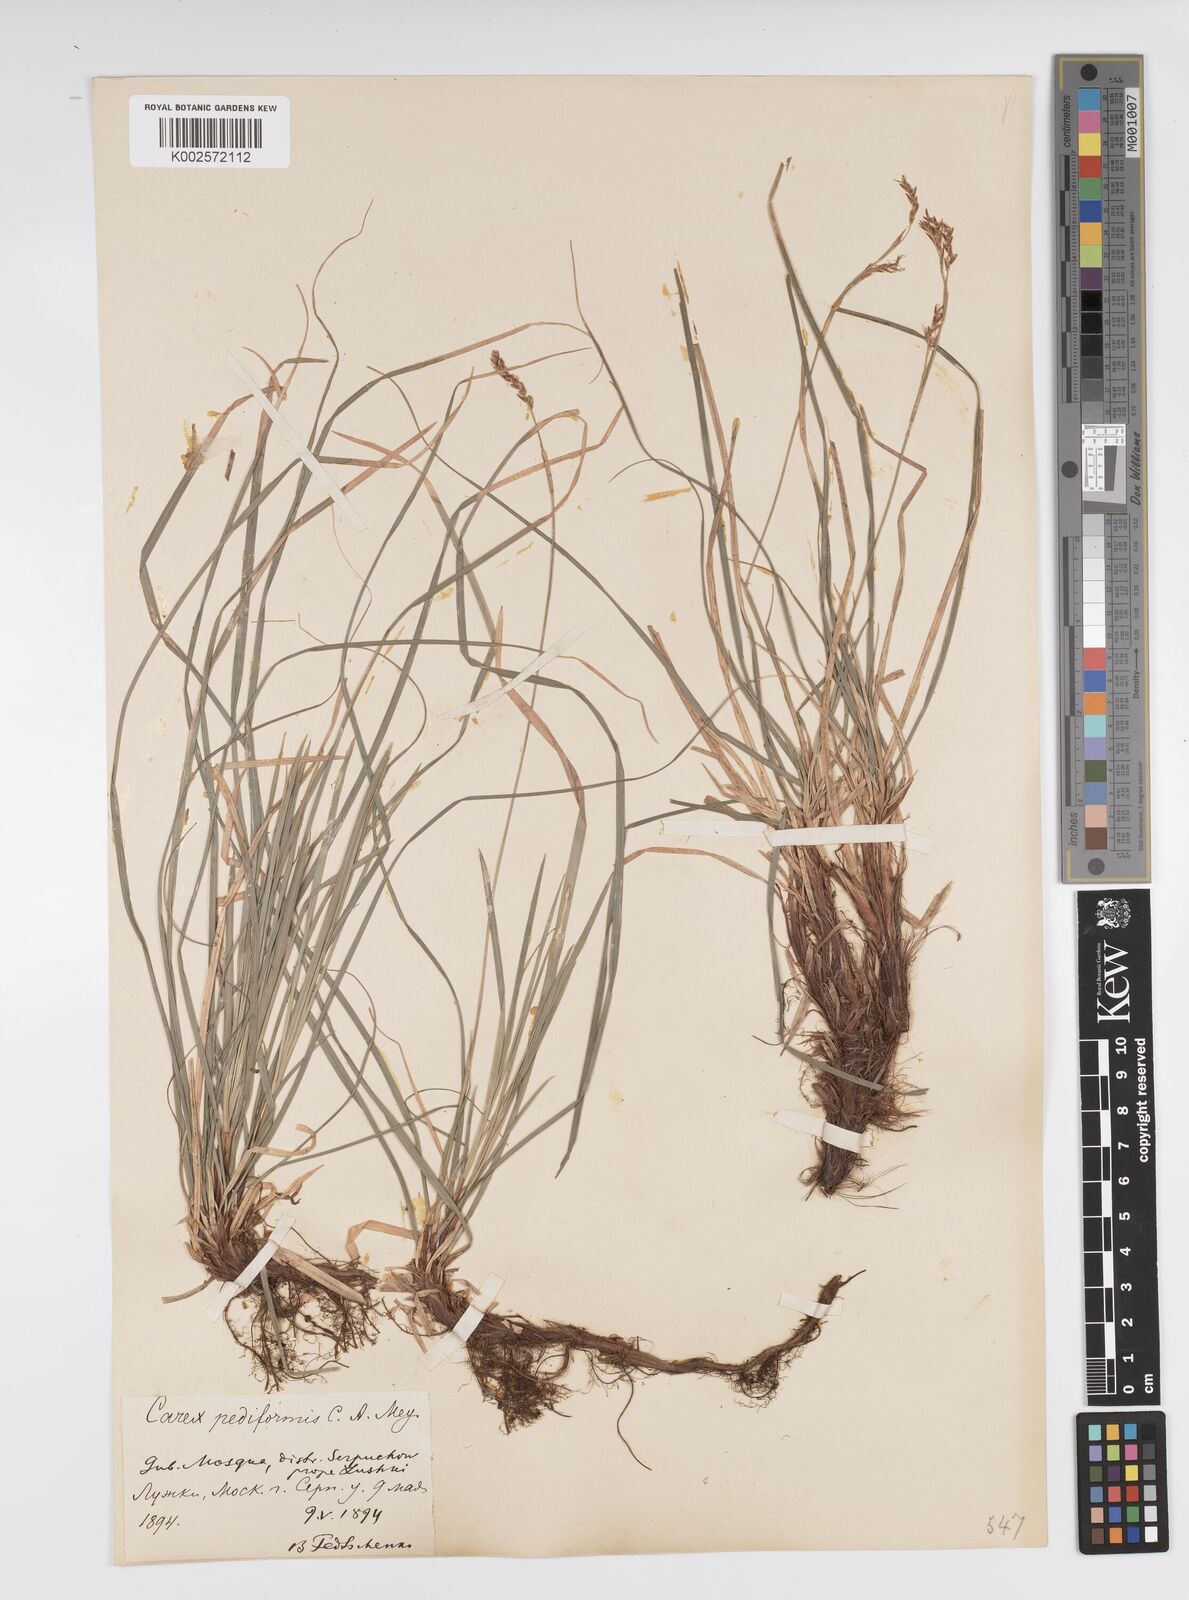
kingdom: Plantae
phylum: Tracheophyta
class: Liliopsida
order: Poales
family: Cyperaceae
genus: Carex
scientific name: Carex pediformis
